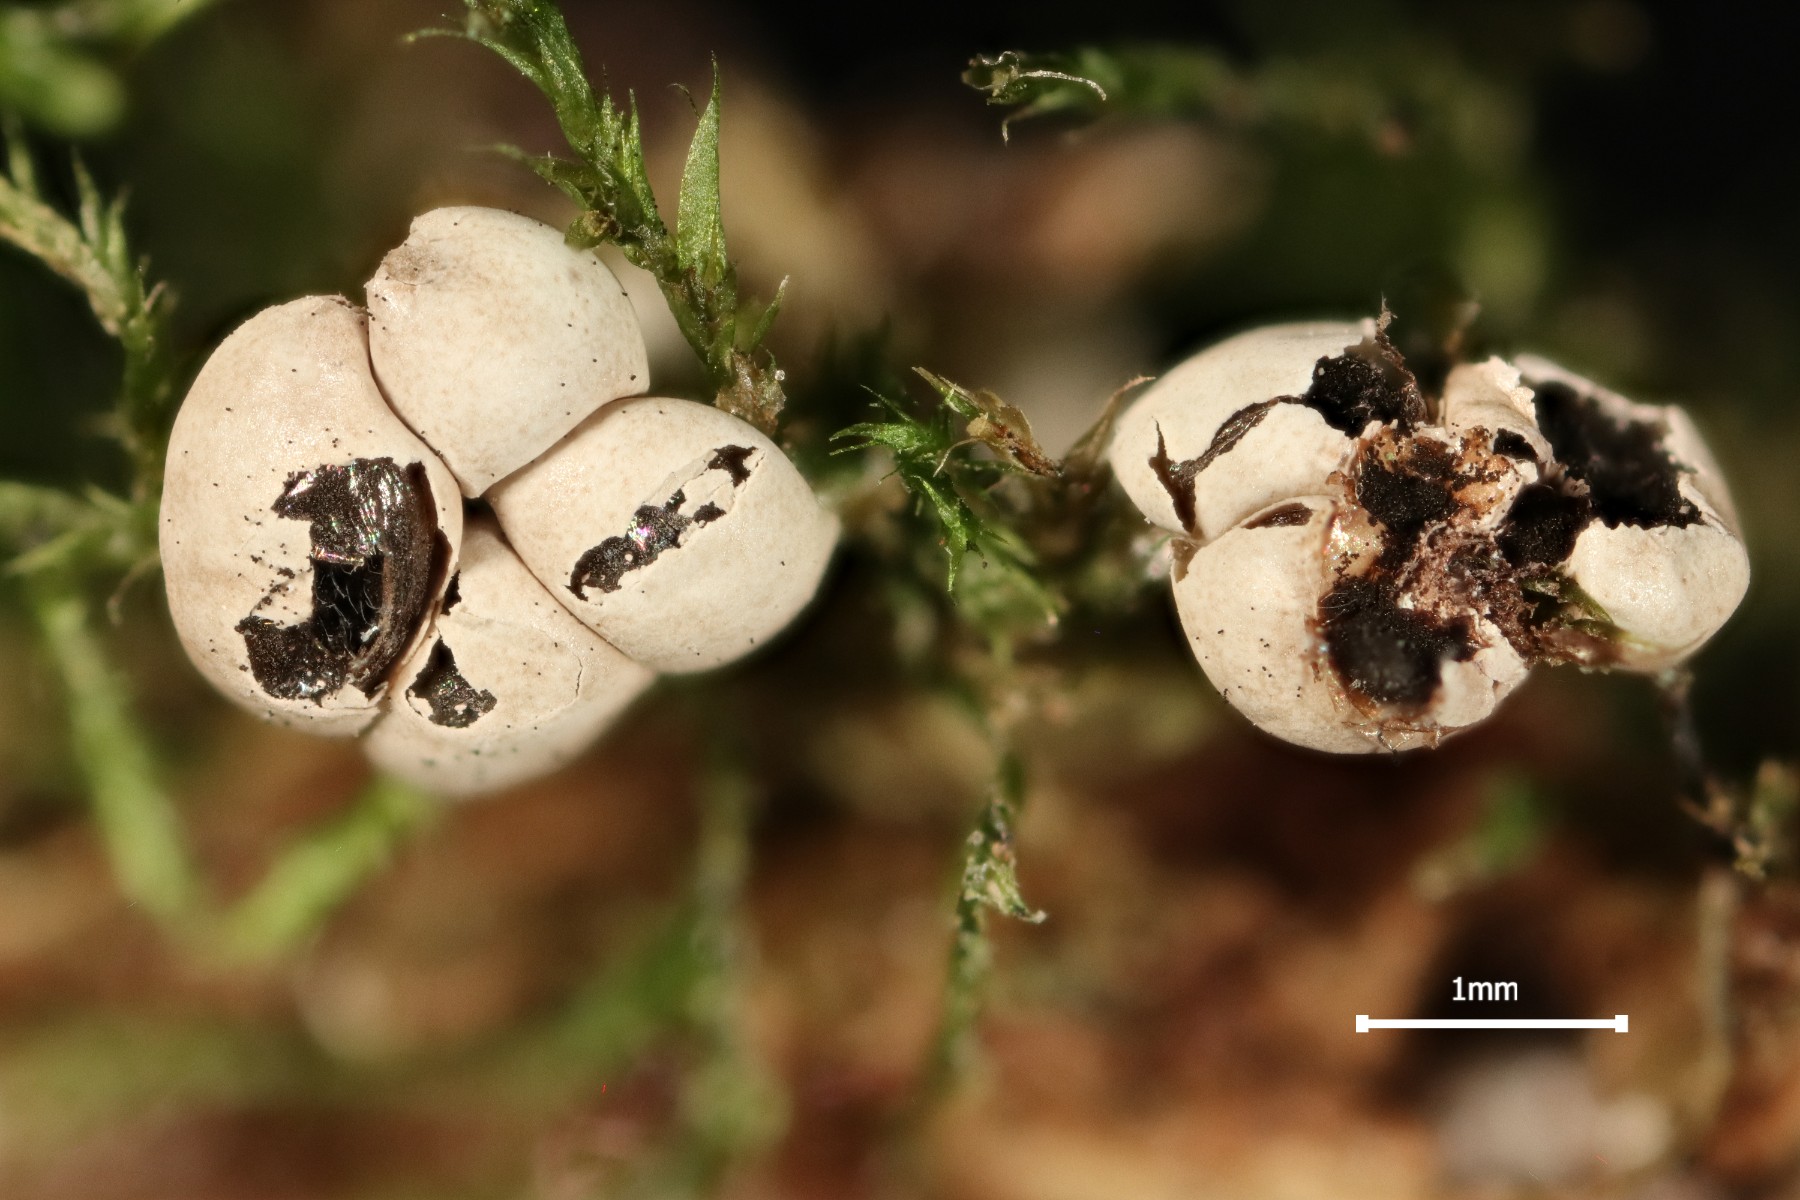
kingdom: Protozoa
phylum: Mycetozoa
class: Myxomycetes
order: Physarales
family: Didymiaceae
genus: Diderma
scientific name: Diderma sauteri
